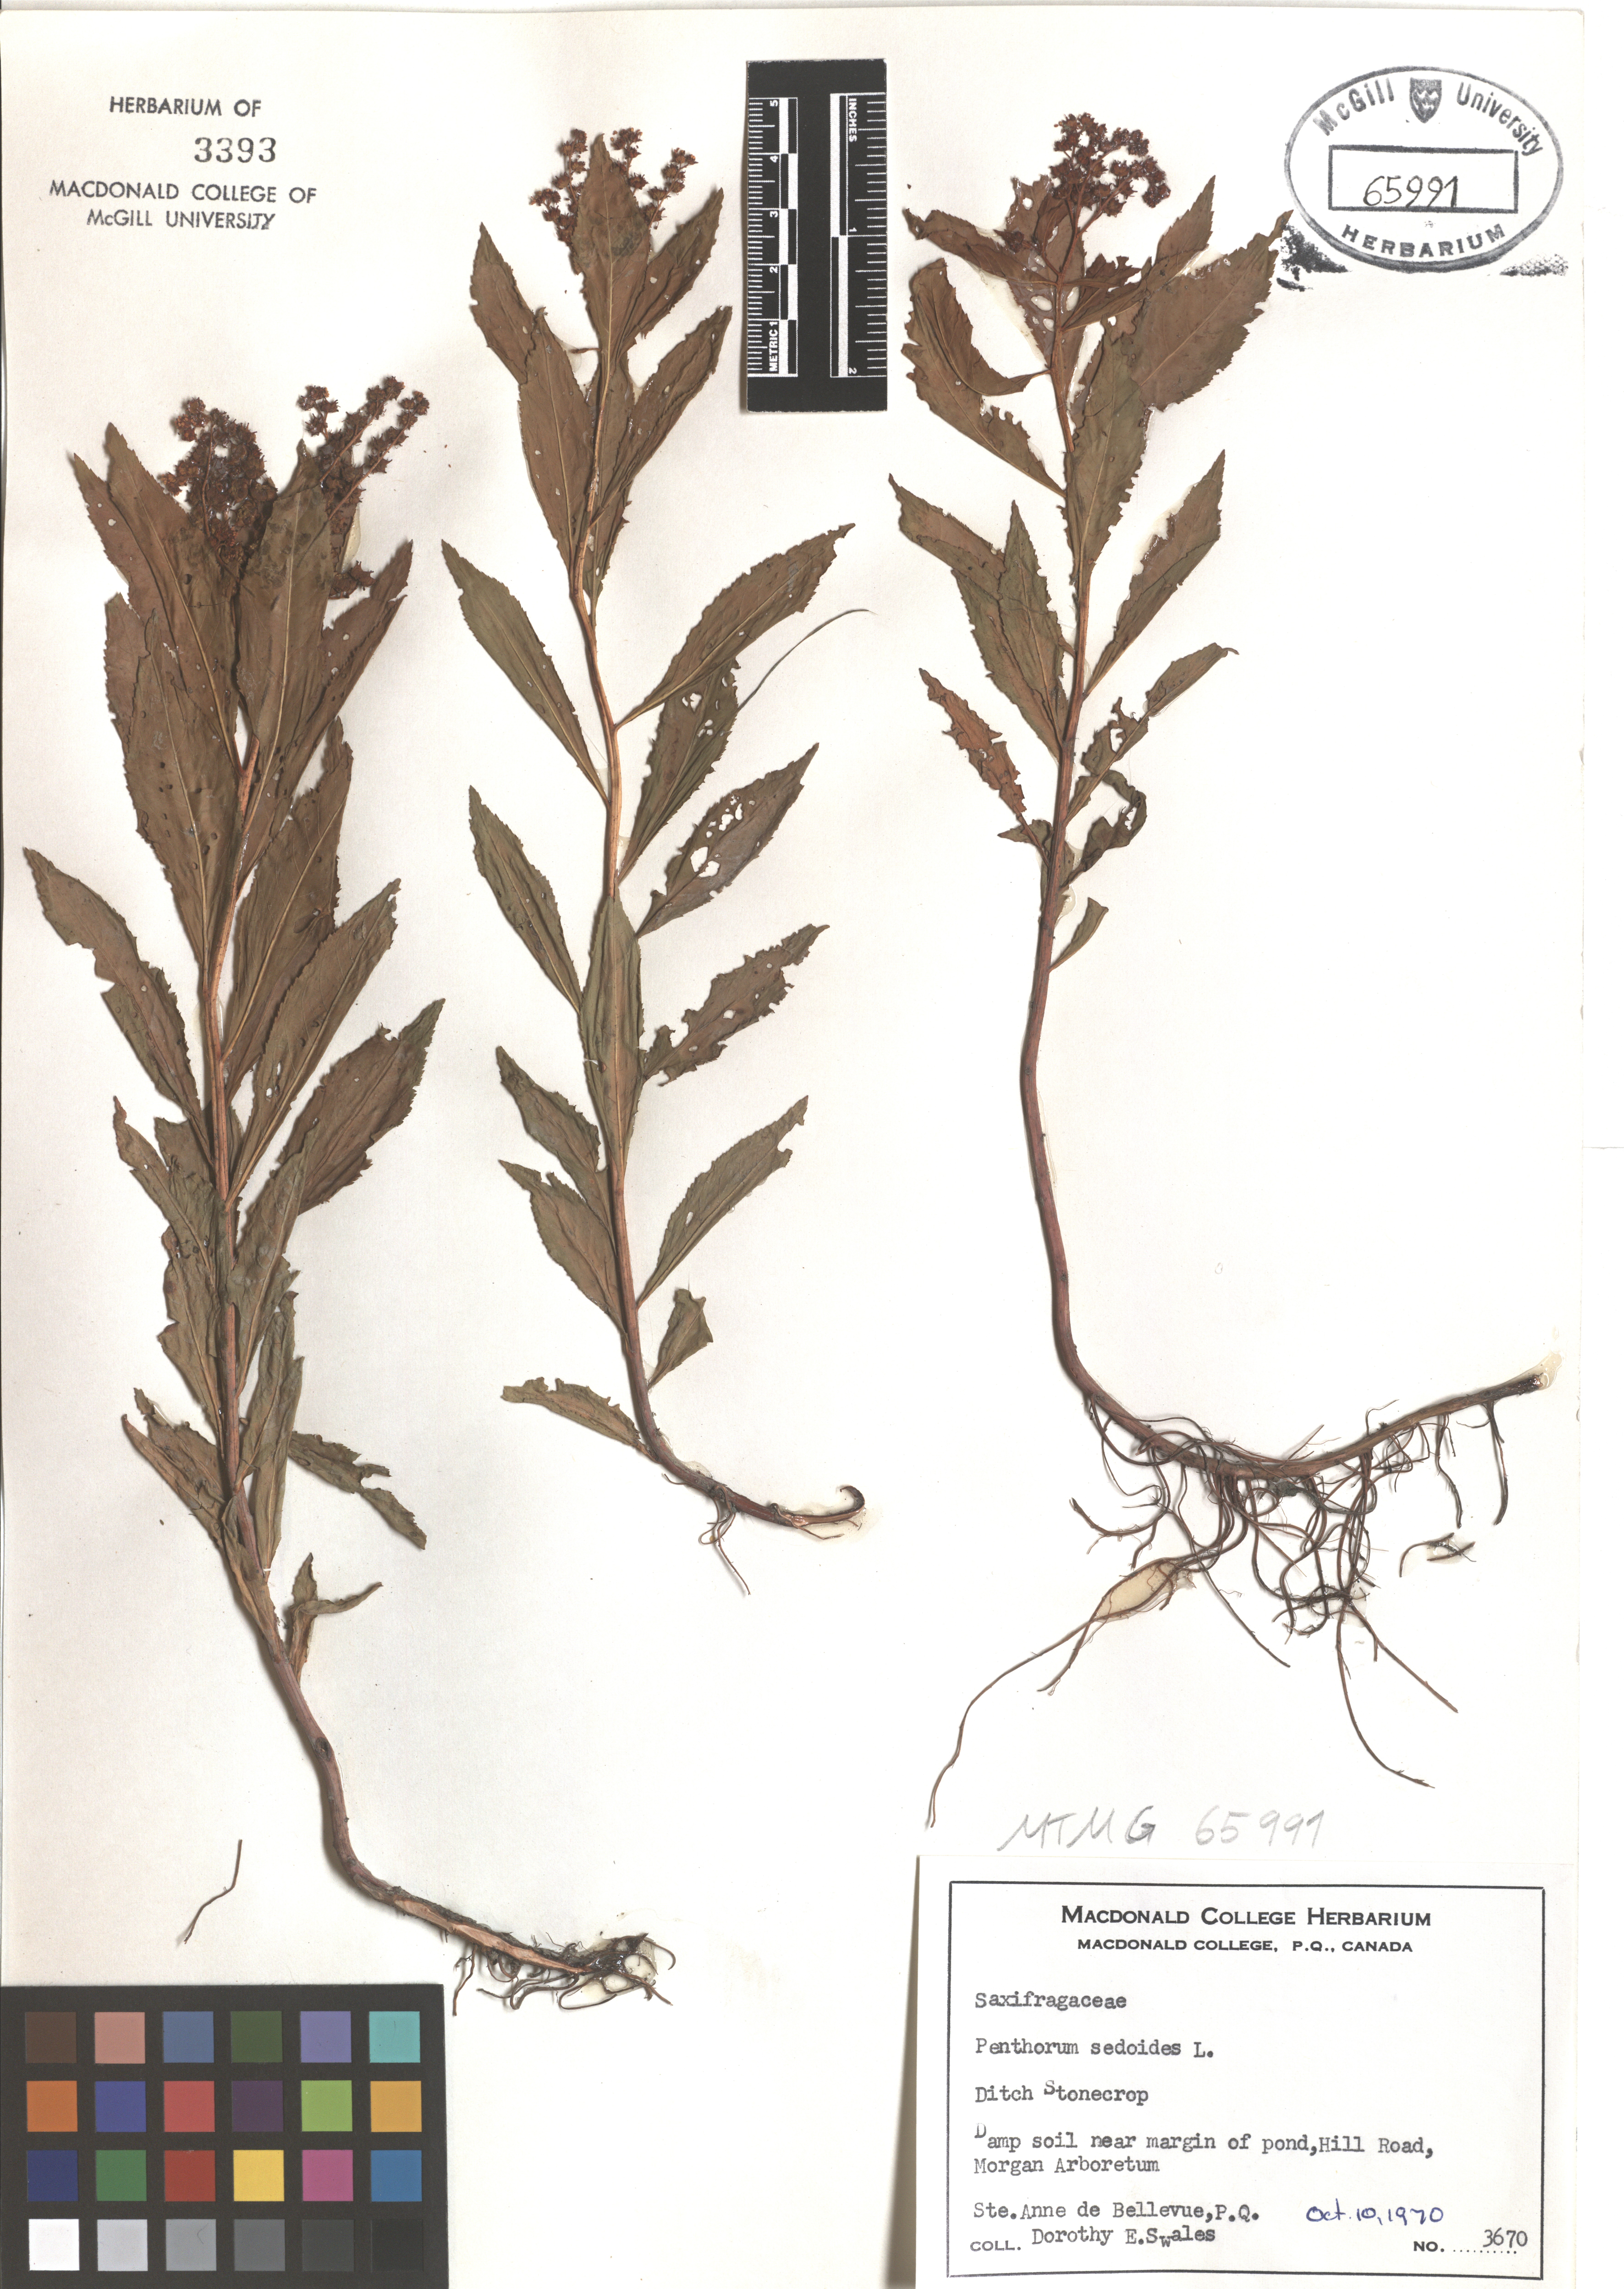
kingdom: Plantae
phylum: Tracheophyta
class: Magnoliopsida
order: Saxifragales
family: Saxifragaceae
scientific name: Saxifragaceae
